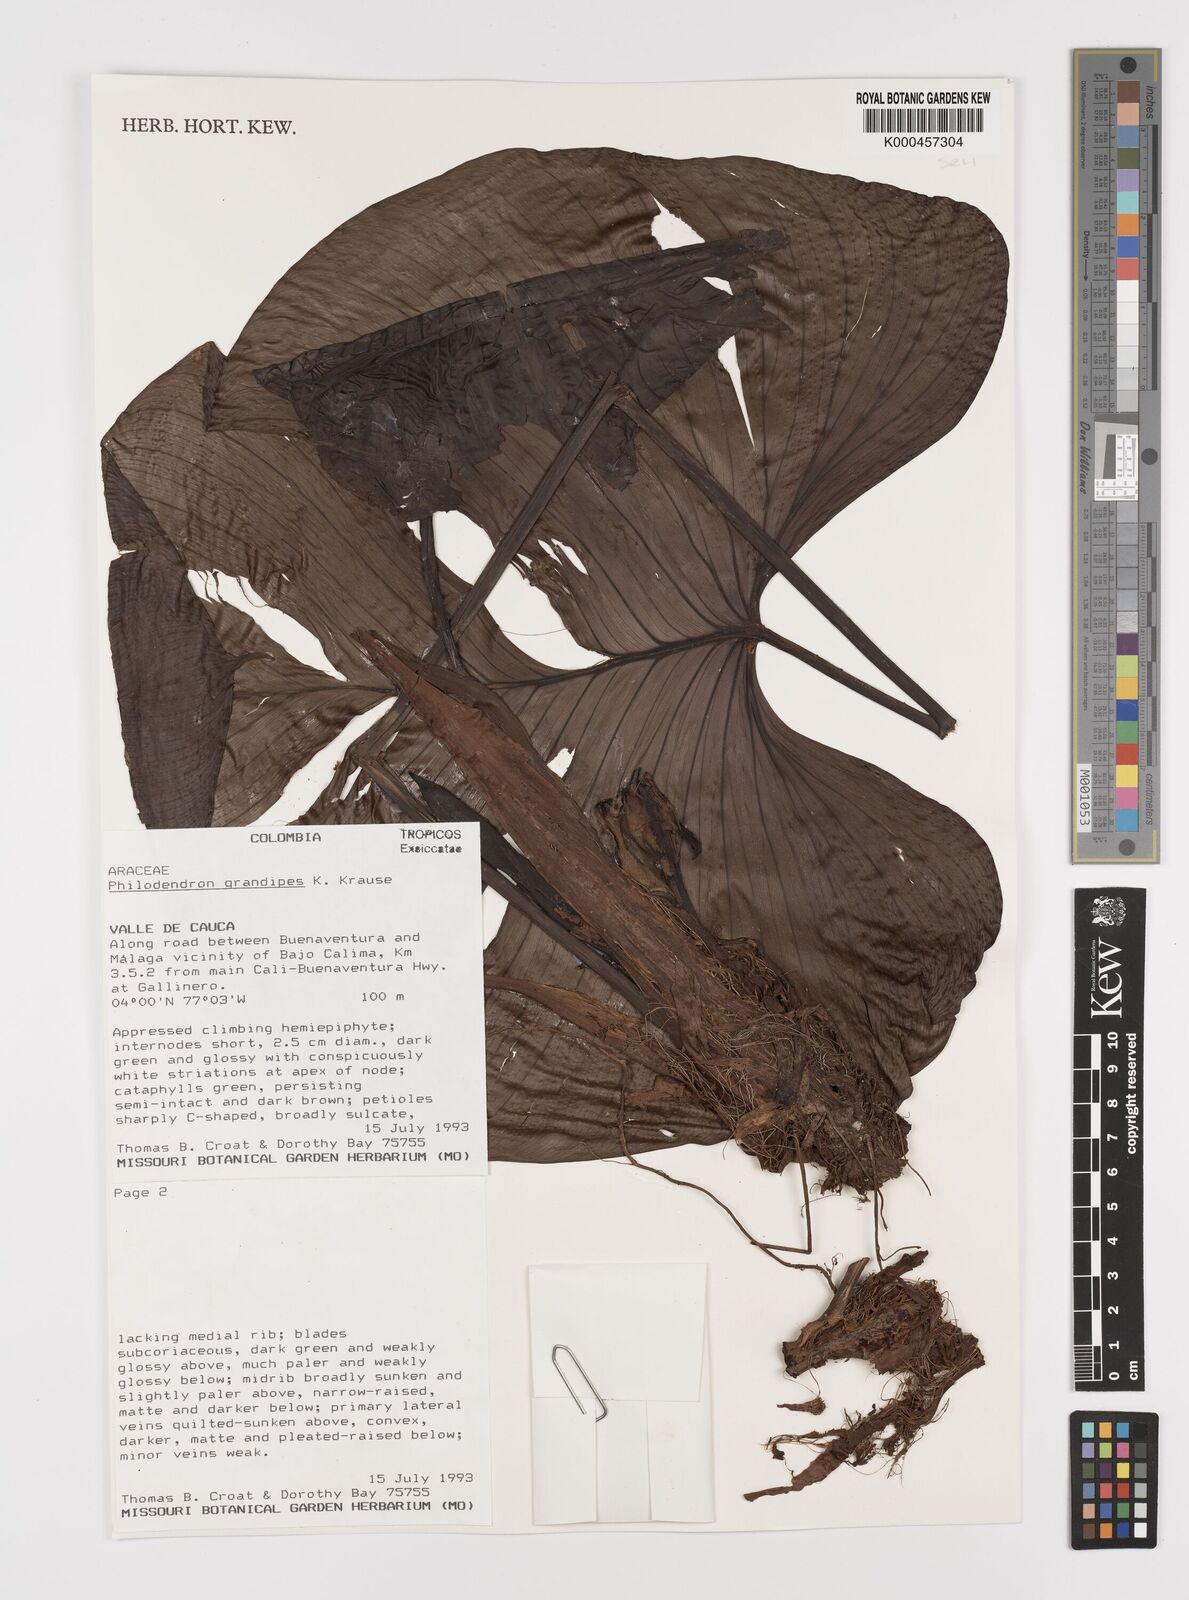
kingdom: Plantae
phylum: Tracheophyta
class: Liliopsida
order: Alismatales
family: Araceae
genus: Philodendron
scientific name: Philodendron grandipes
